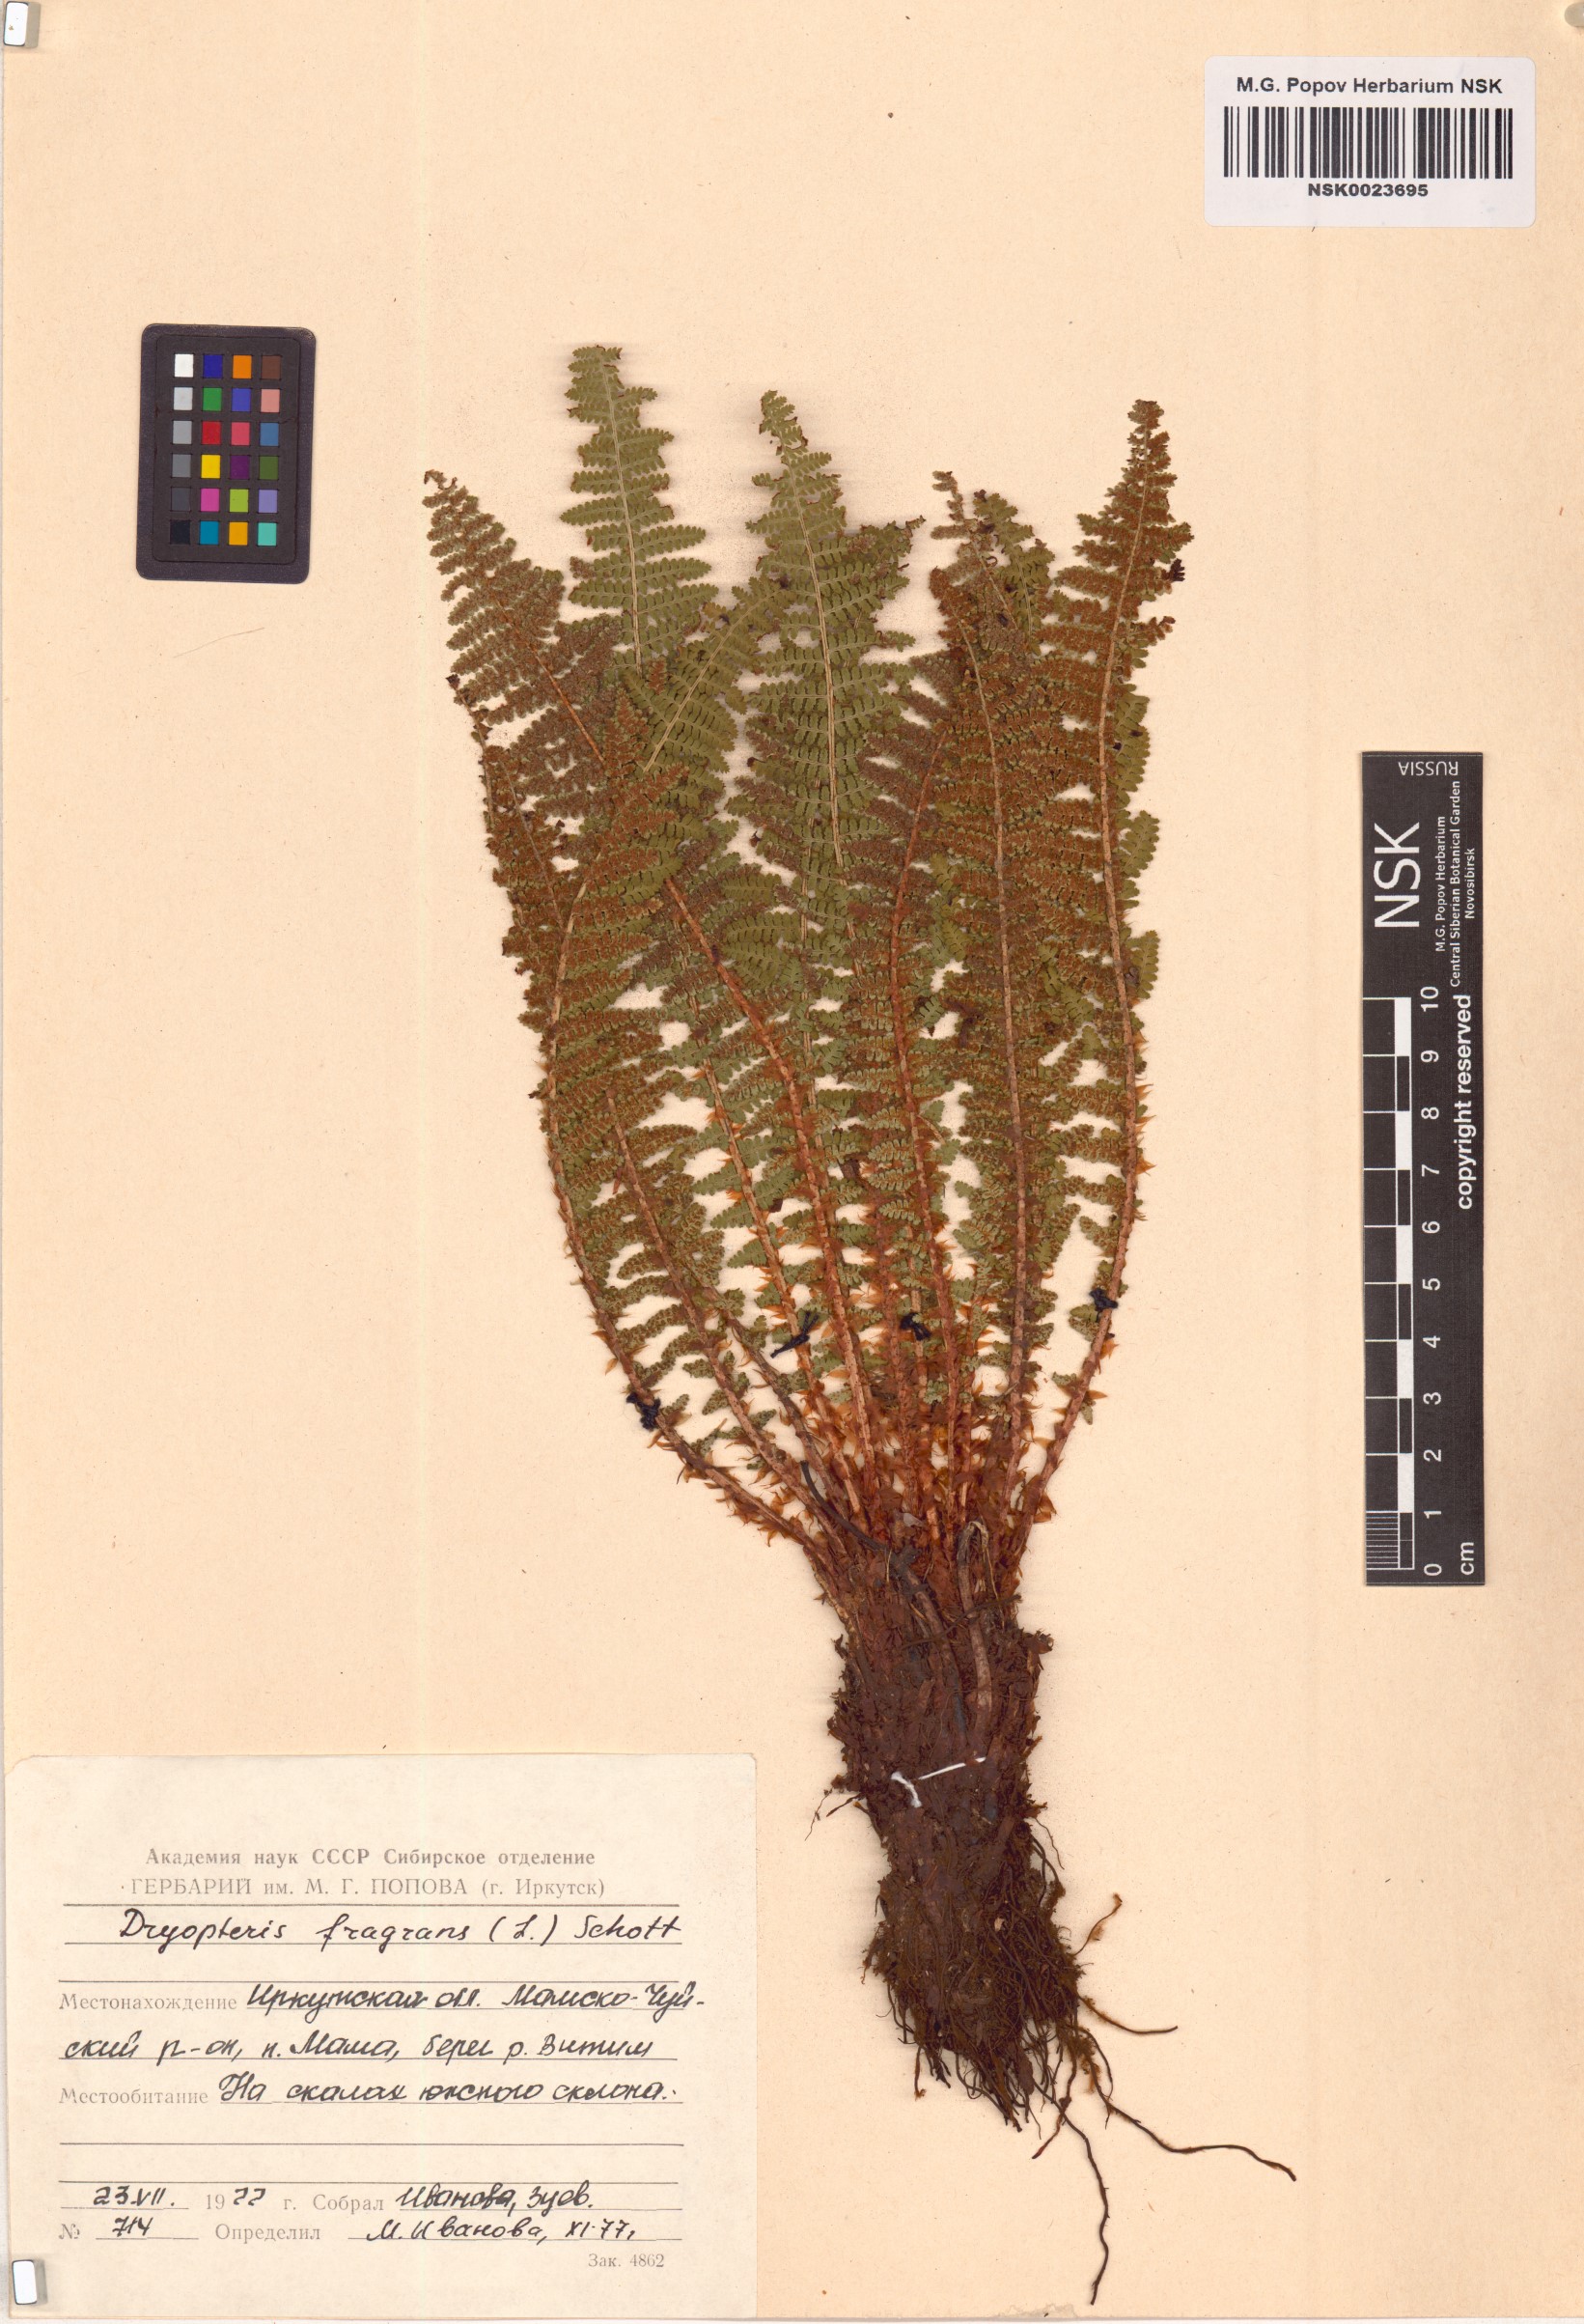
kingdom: Plantae
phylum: Tracheophyta
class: Polypodiopsida
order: Polypodiales
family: Dryopteridaceae
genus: Dryopteris
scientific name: Dryopteris fragrans
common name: Fragrant wood fern
